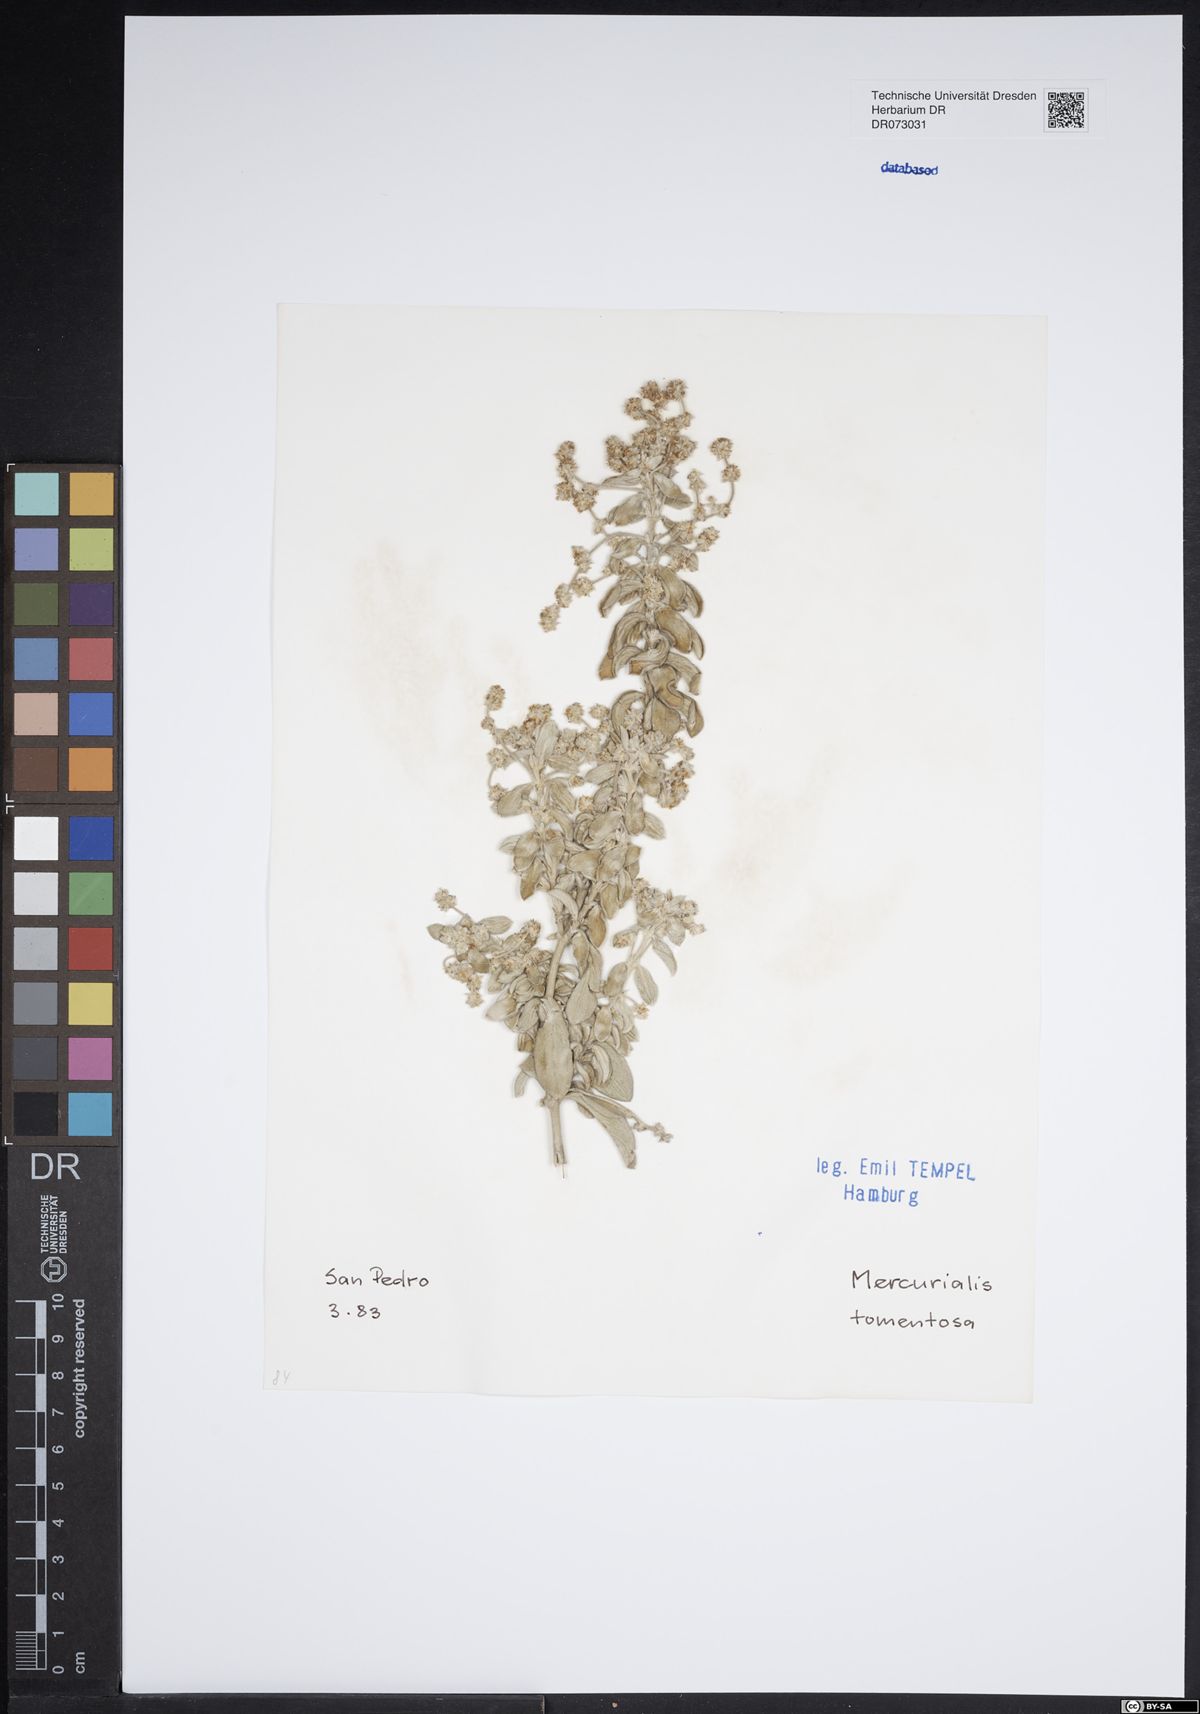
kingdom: Plantae
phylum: Tracheophyta
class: Magnoliopsida
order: Apiales
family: Apiaceae
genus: Orlaya
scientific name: Orlaya grandiflora
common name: White lace flower
